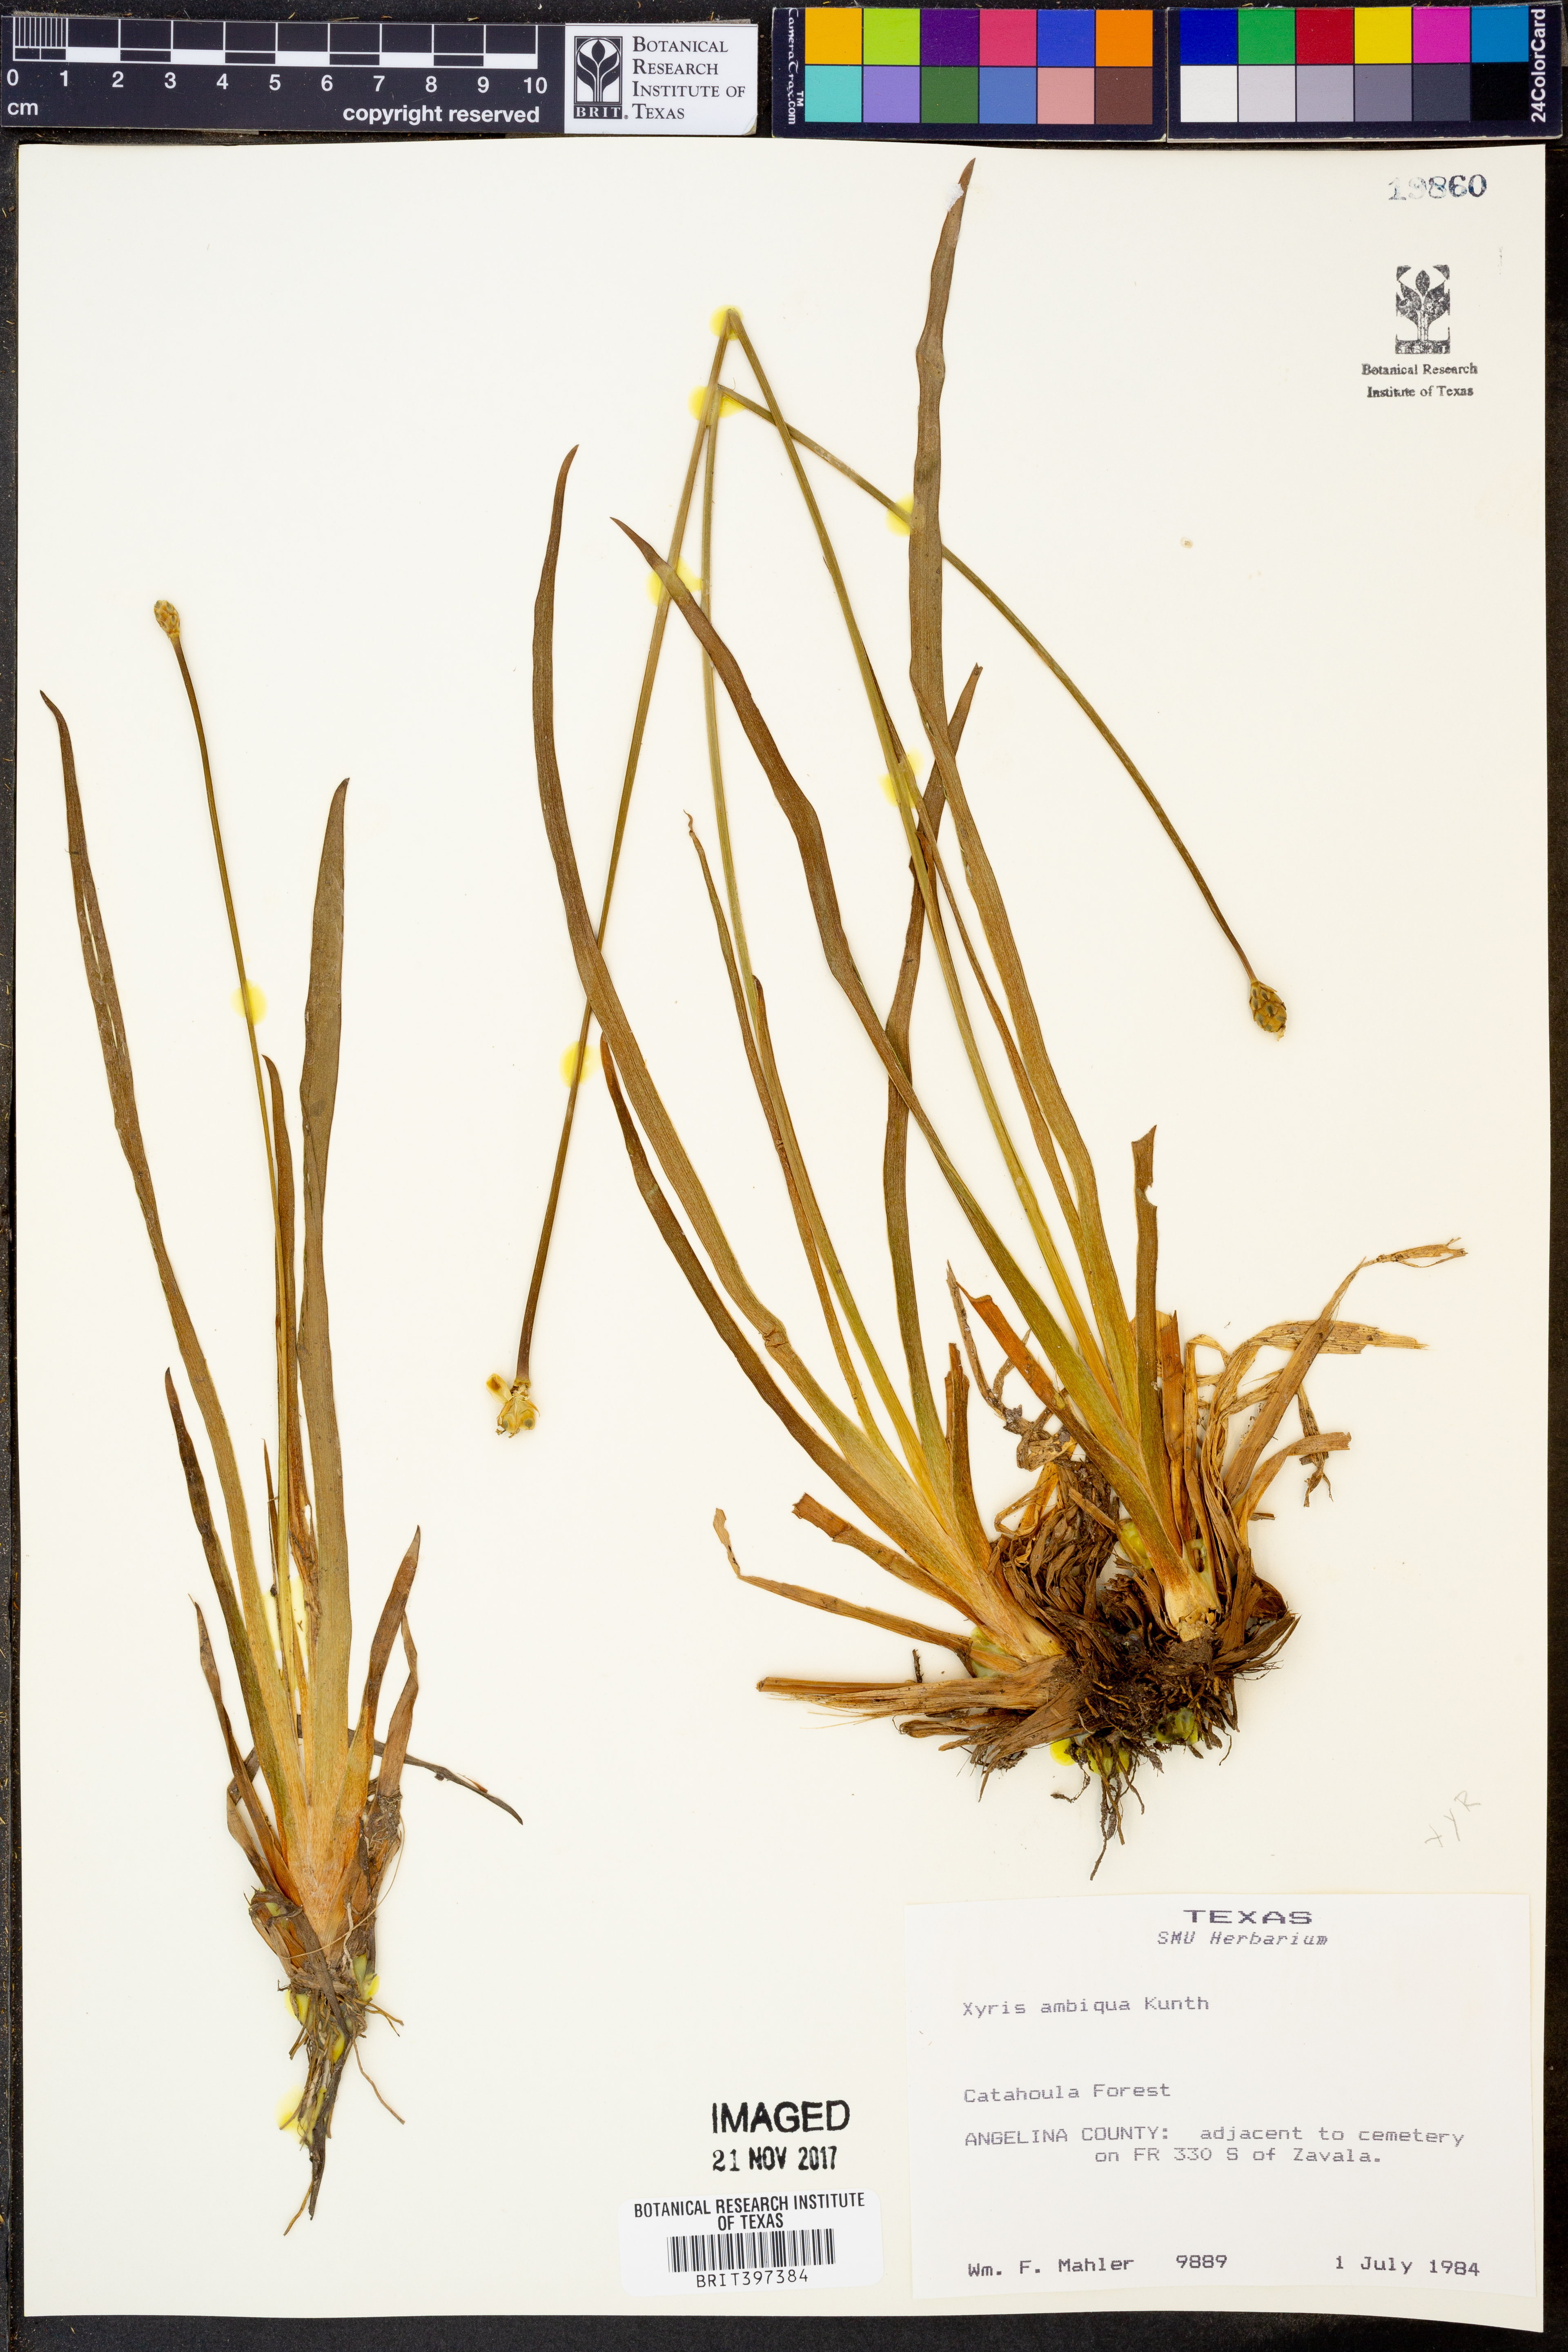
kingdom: Plantae
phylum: Tracheophyta
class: Liliopsida
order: Poales
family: Xyridaceae
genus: Xyris
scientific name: Xyris ambigua
